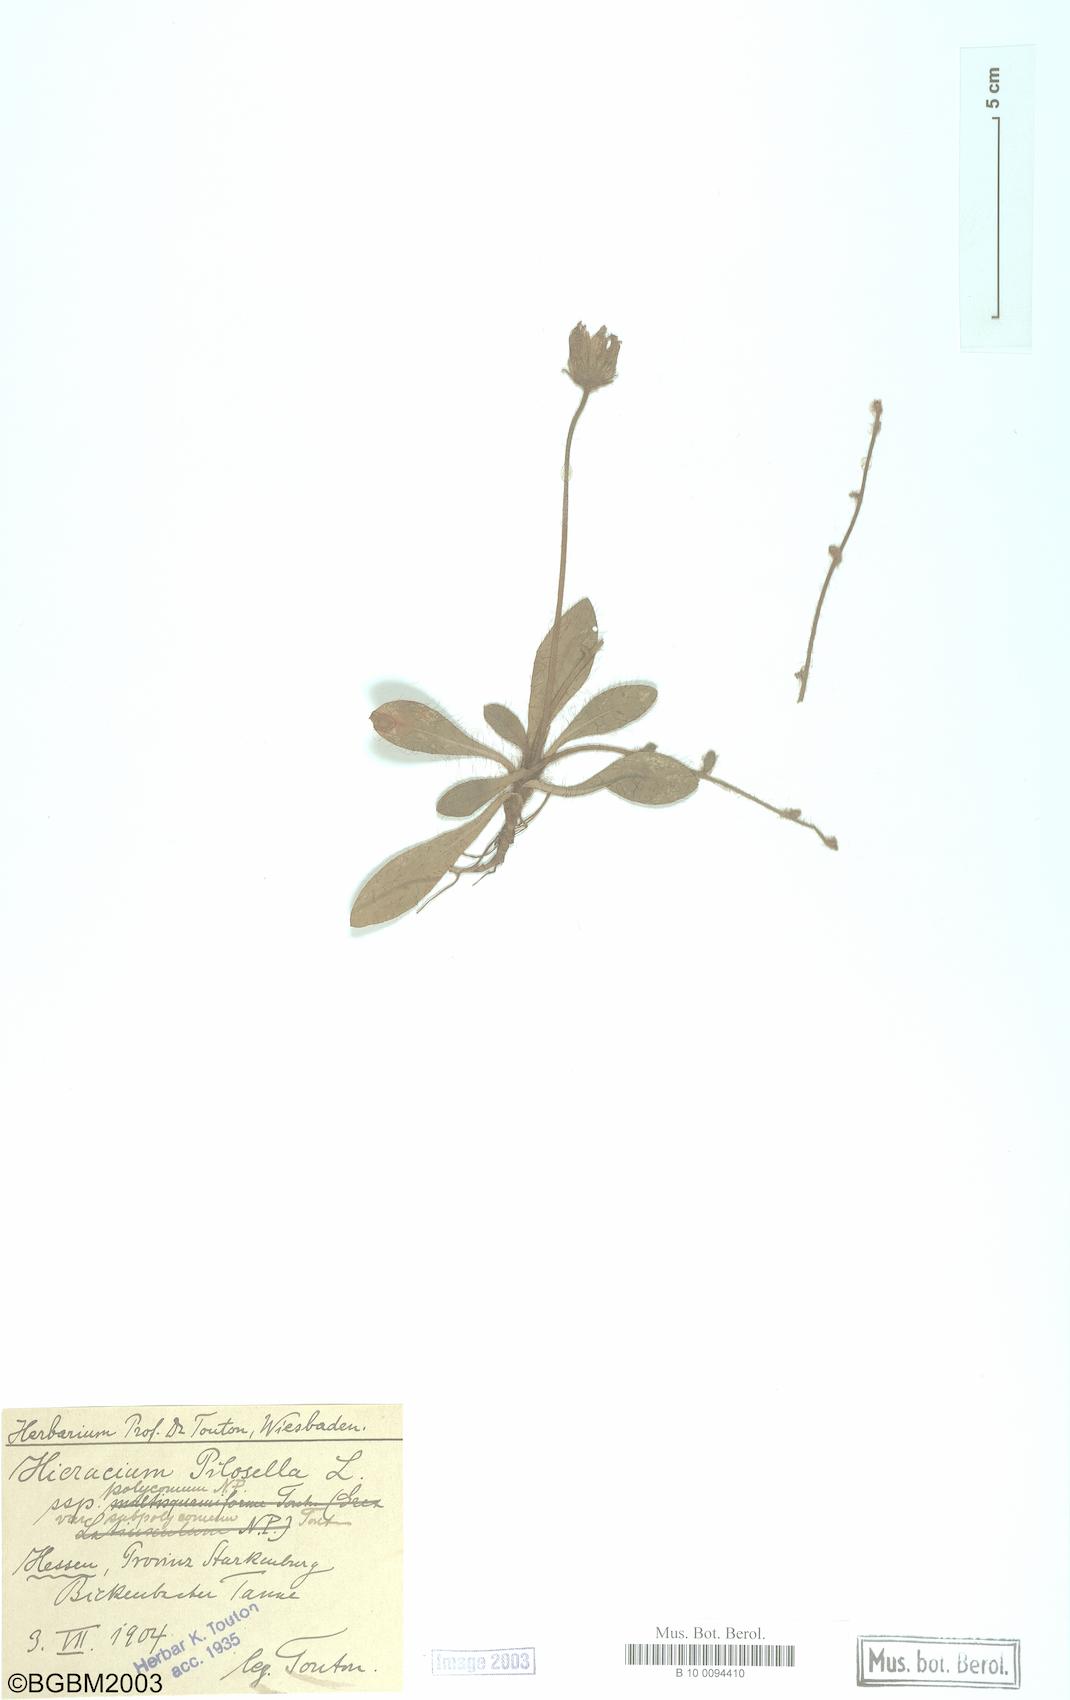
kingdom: Plantae
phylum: Tracheophyta
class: Magnoliopsida
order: Asterales
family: Asteraceae
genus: Pilosella
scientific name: Pilosella officinarum
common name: Mouse-ear hawkweed
